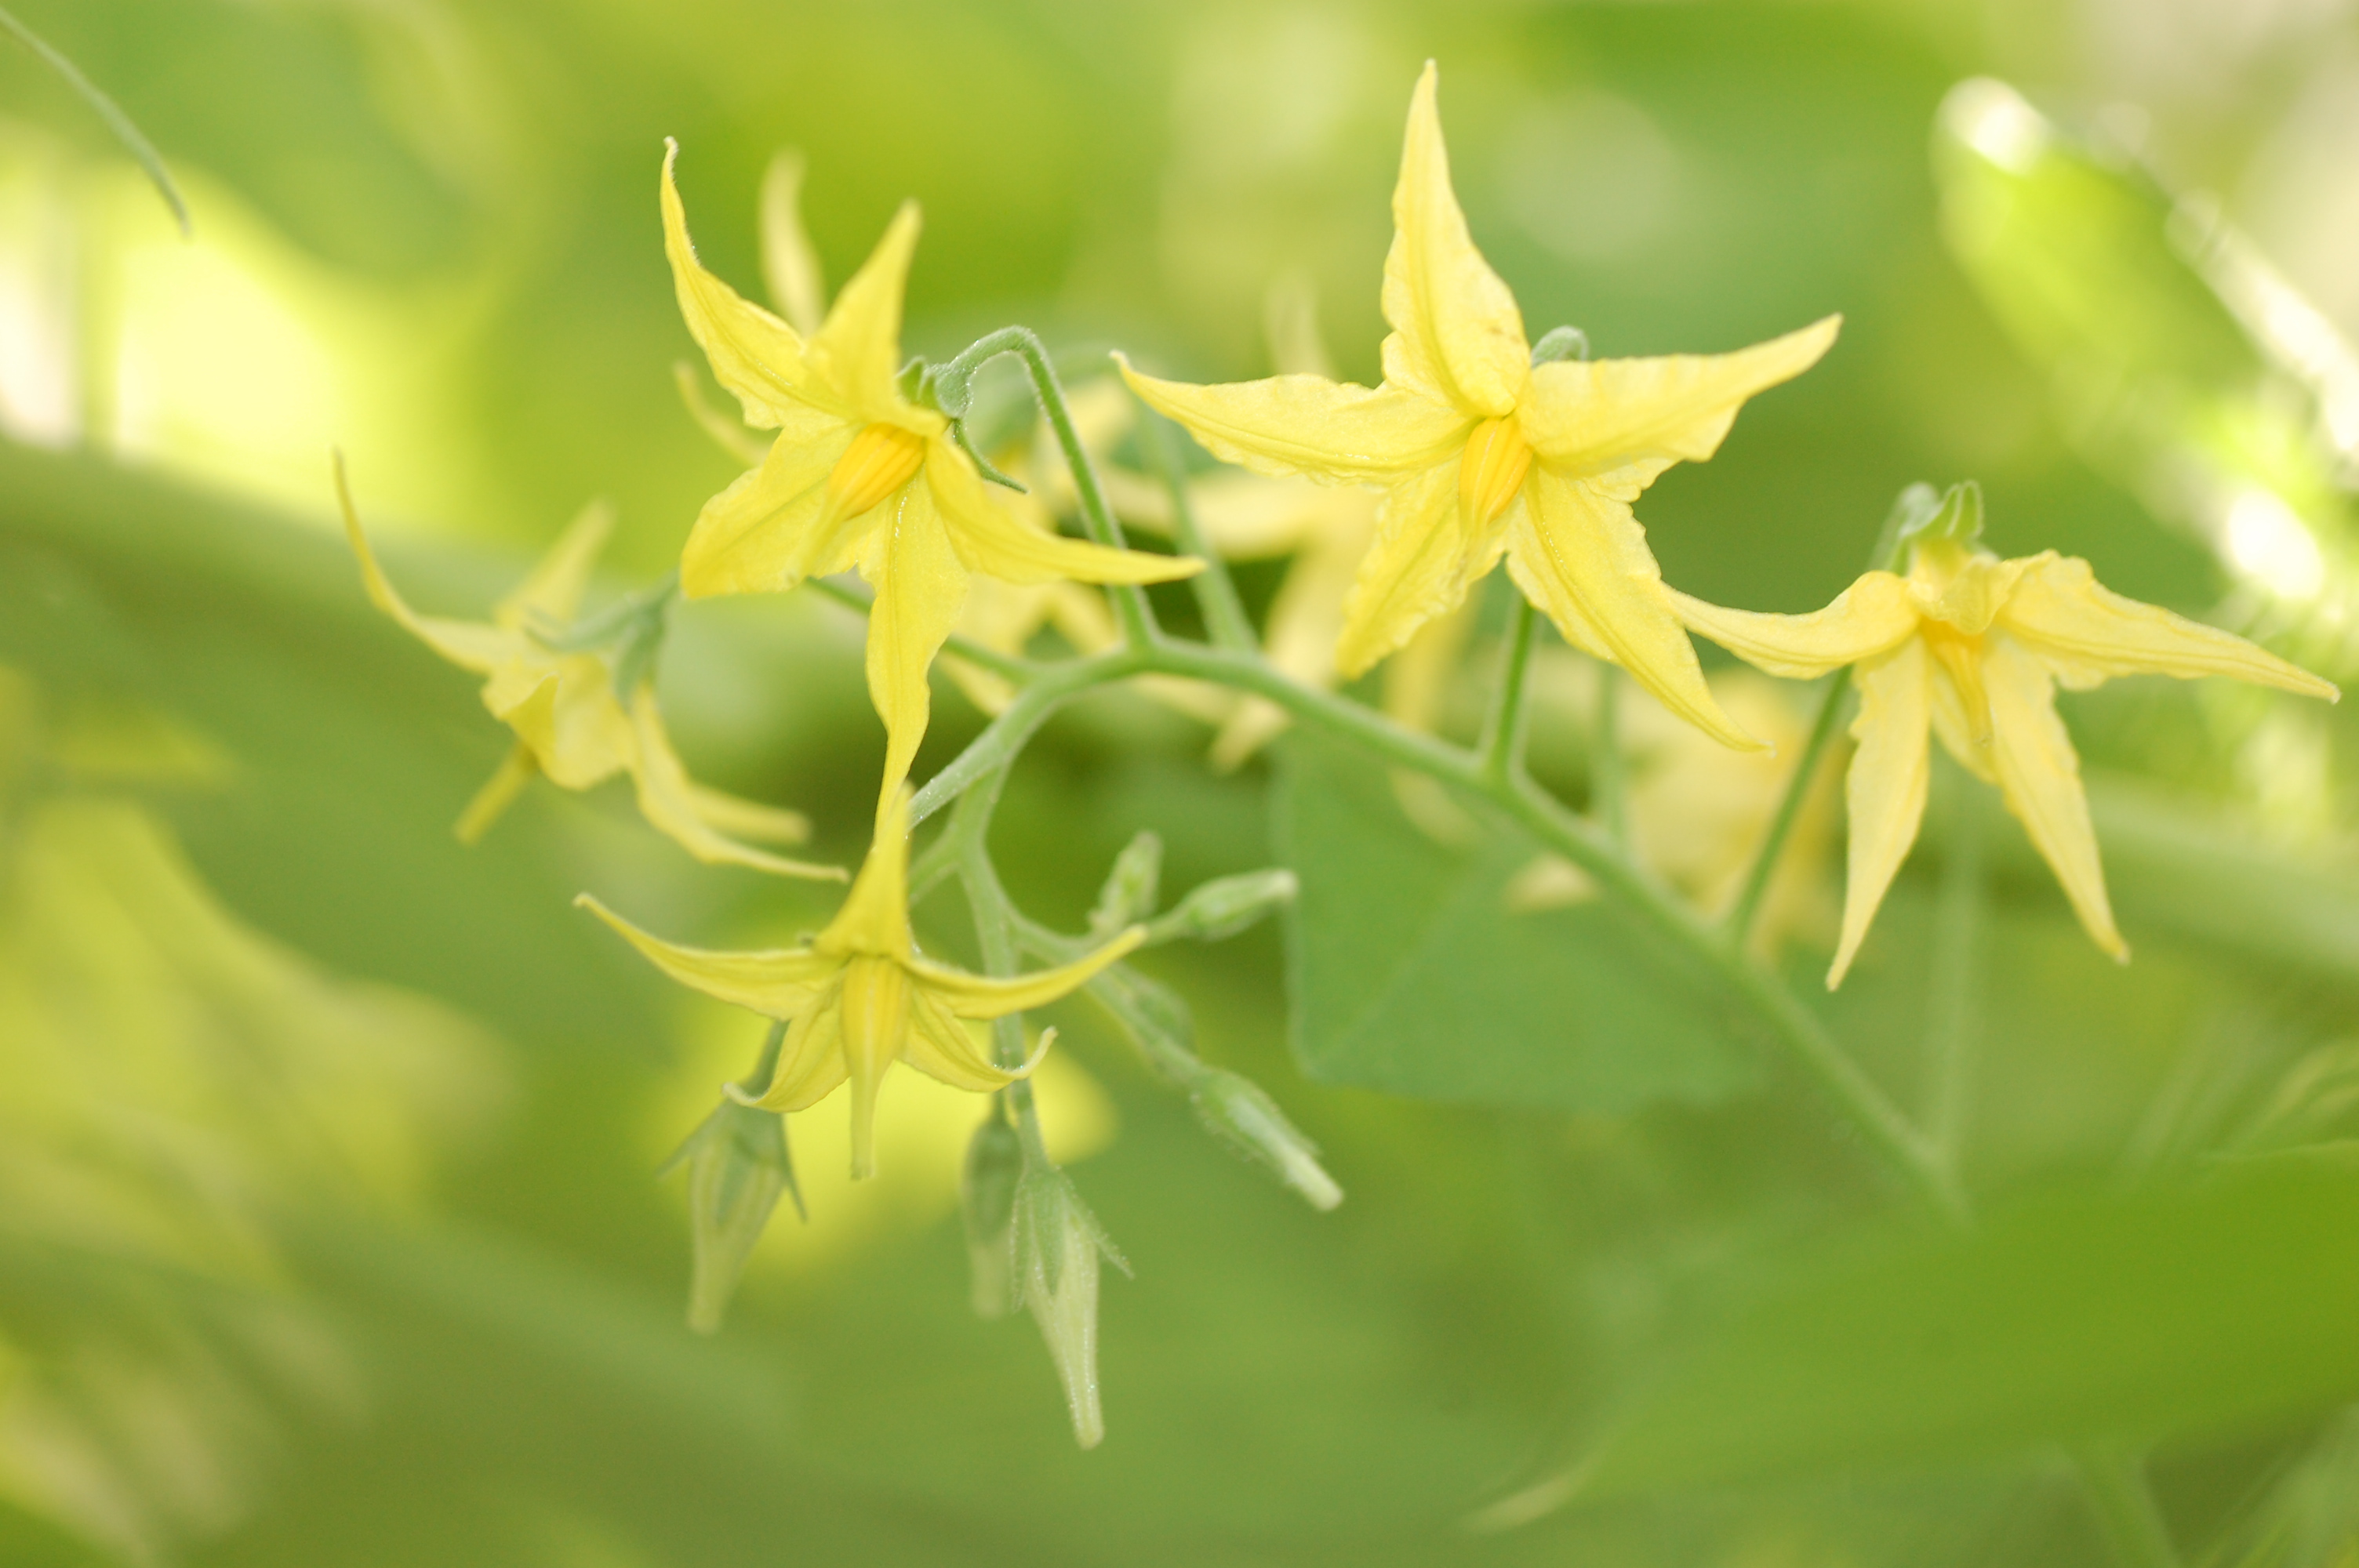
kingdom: Plantae
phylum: Tracheophyta
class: Magnoliopsida
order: Solanales
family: Solanaceae
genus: Solanum
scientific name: Solanum pimpinellifolium
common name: Currant-tomato
